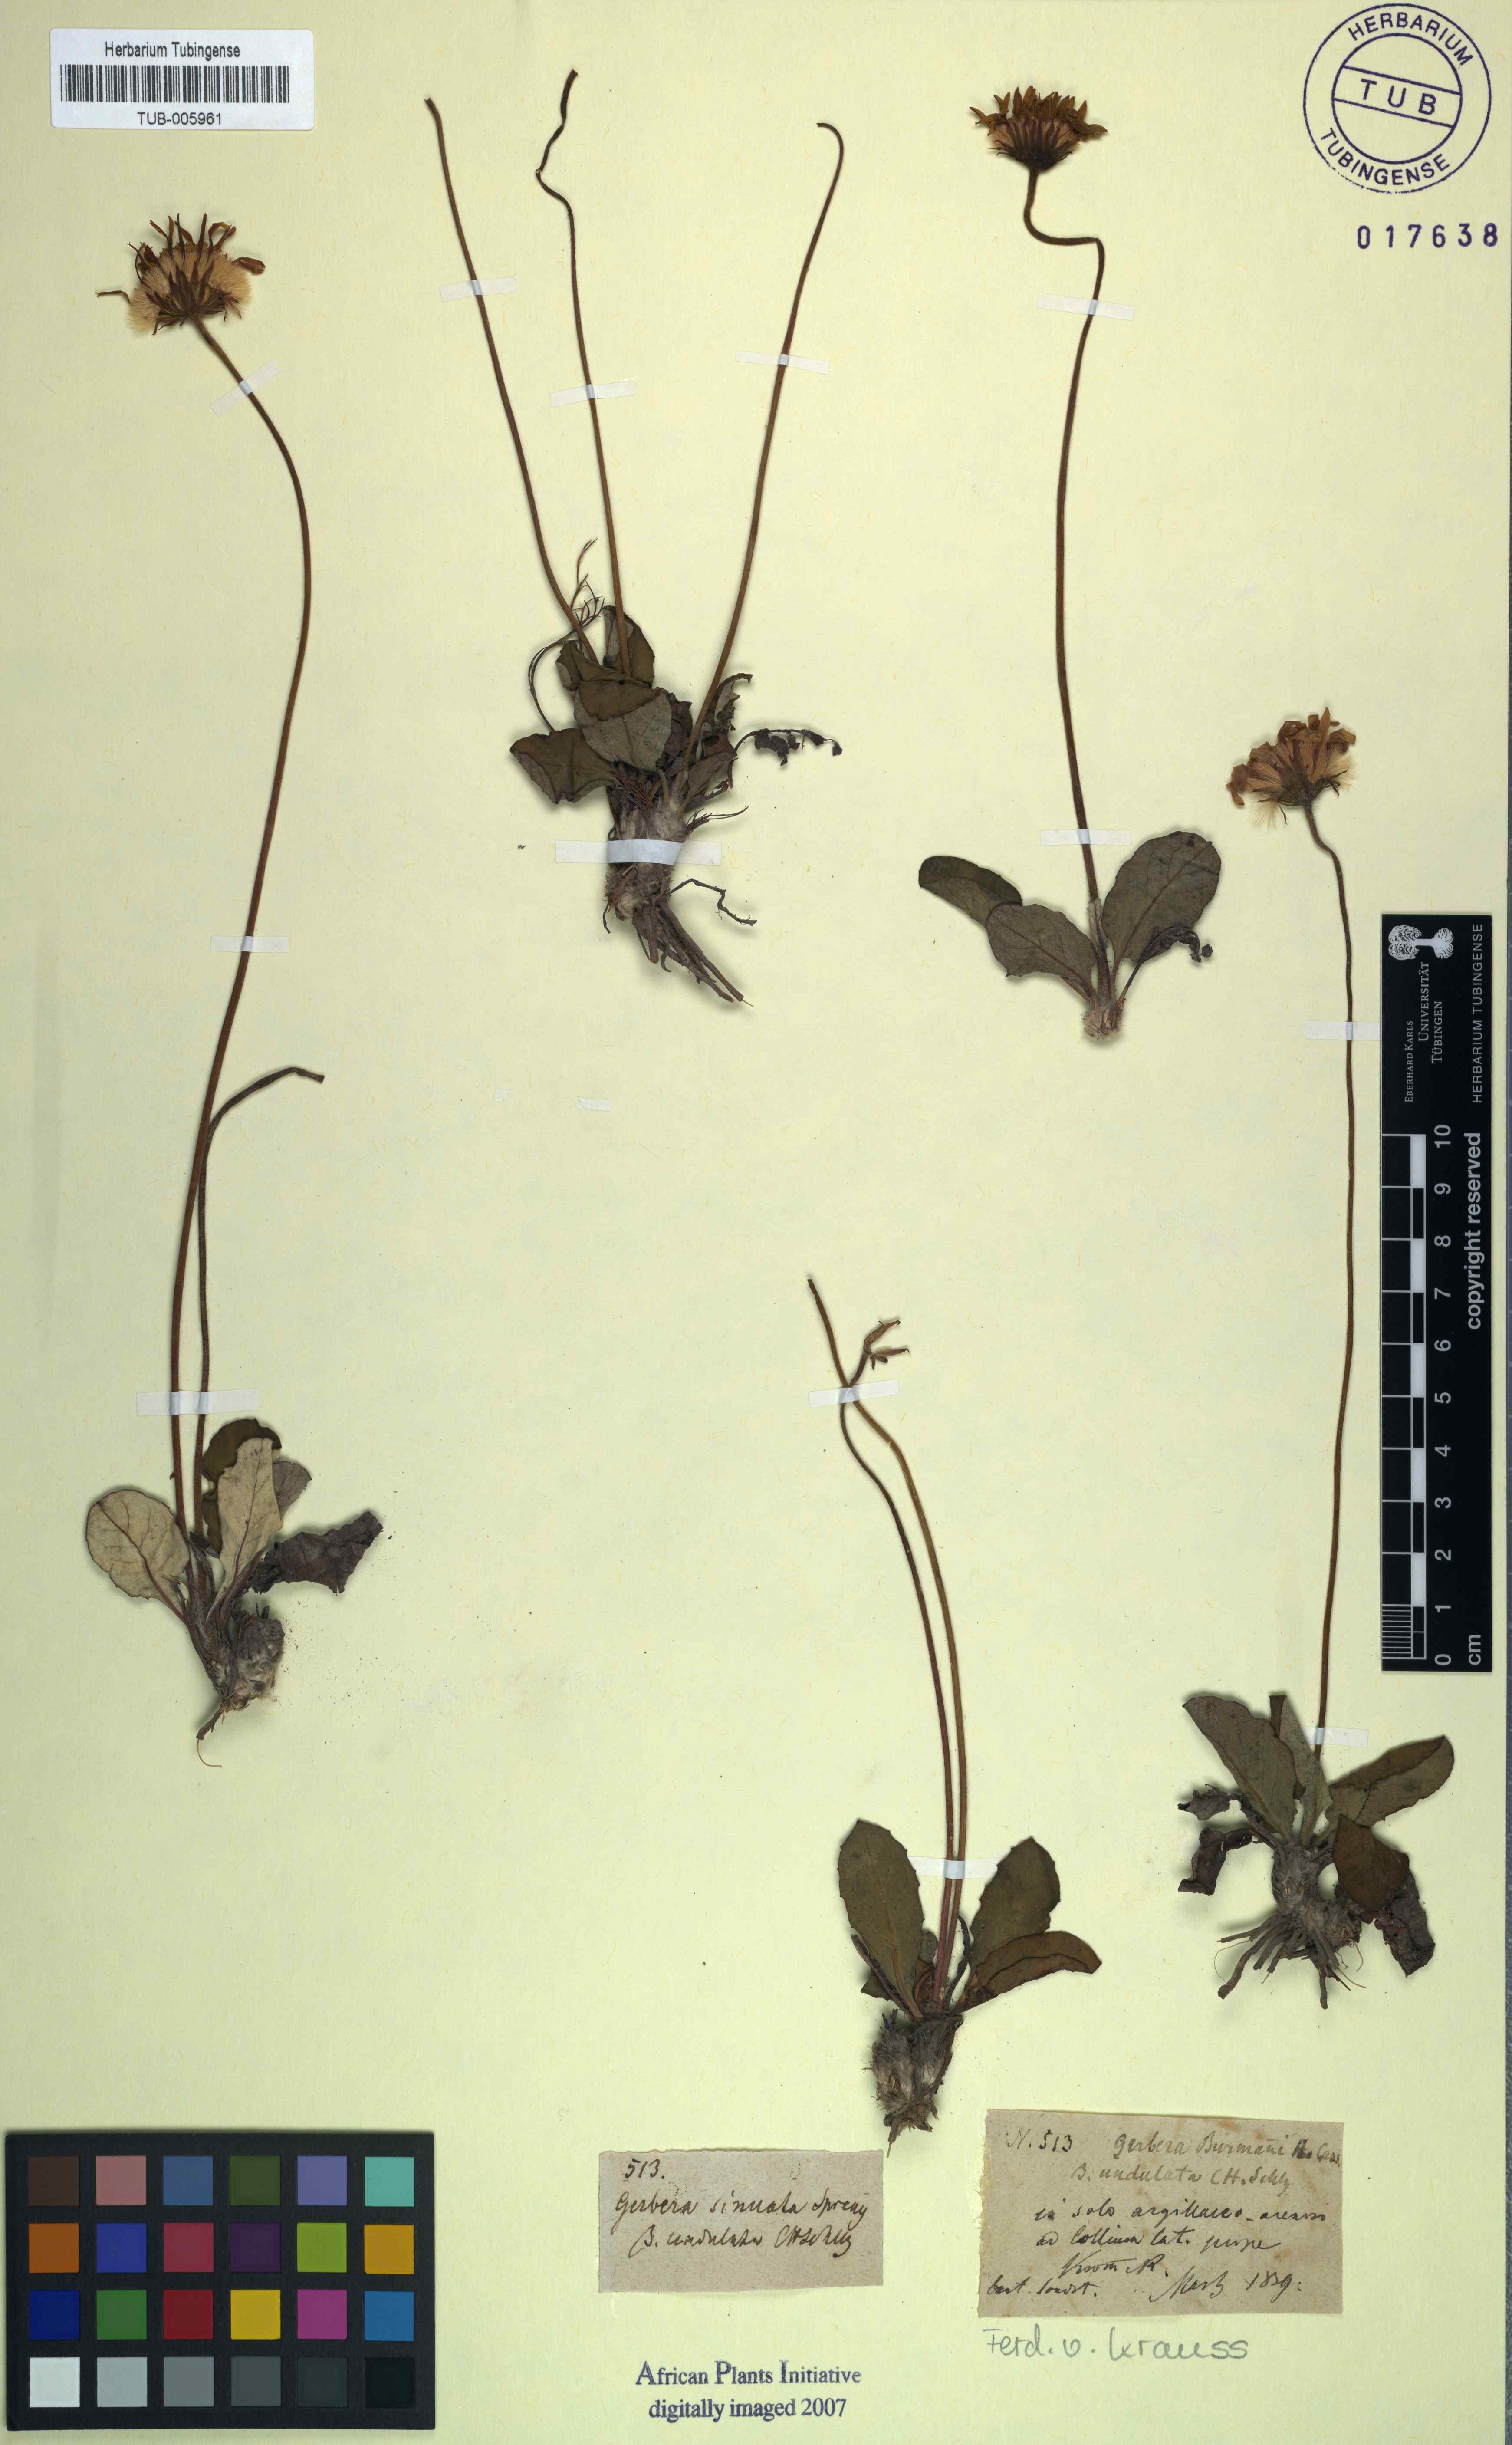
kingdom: Plantae
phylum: Tracheophyta
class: Magnoliopsida
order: Asterales
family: Asteraceae
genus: Gerbera
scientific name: Gerbera crocea
